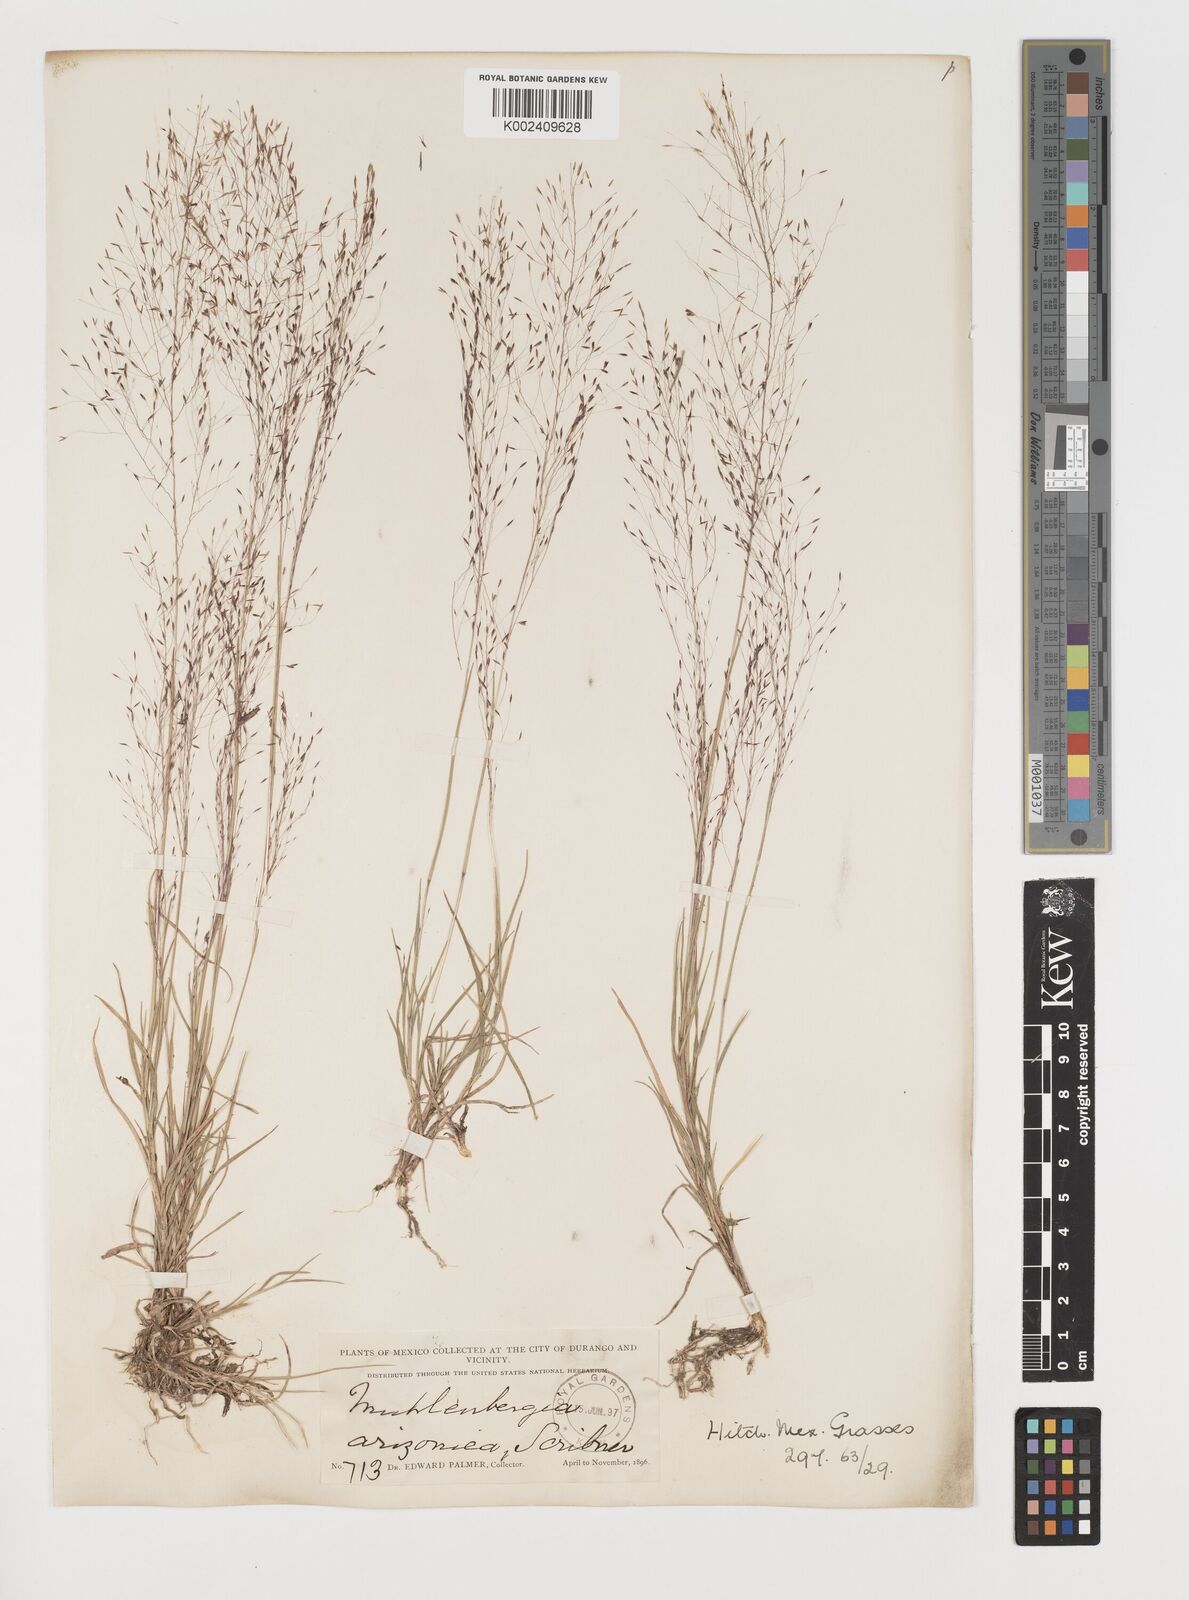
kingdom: Plantae
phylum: Tracheophyta
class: Liliopsida
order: Poales
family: Poaceae
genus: Muhlenbergia
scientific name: Muhlenbergia arizonica
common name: Arizona muhly
